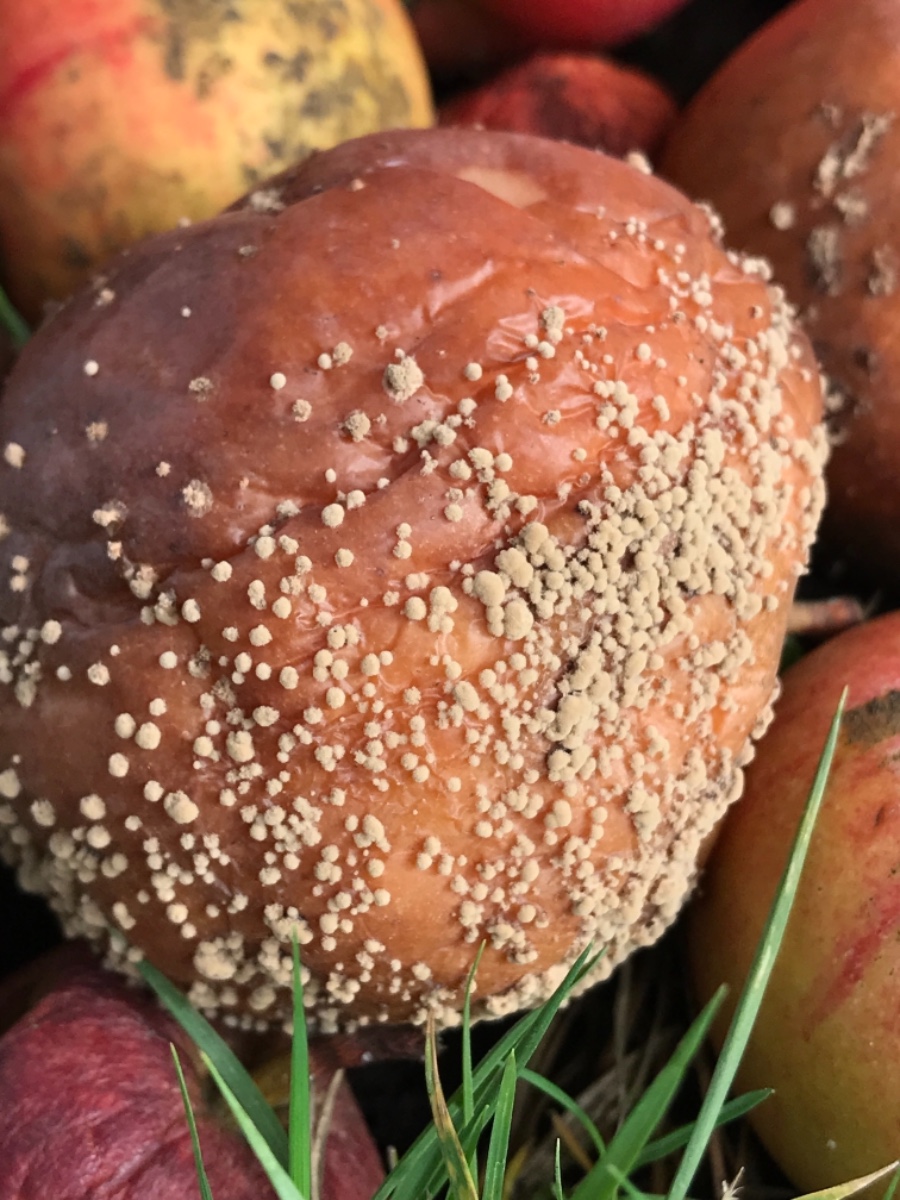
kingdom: Fungi
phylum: Ascomycota
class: Leotiomycetes
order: Helotiales
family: Sclerotiniaceae
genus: Monilinia
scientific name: Monilinia fructigena
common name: æble-knoldskive
